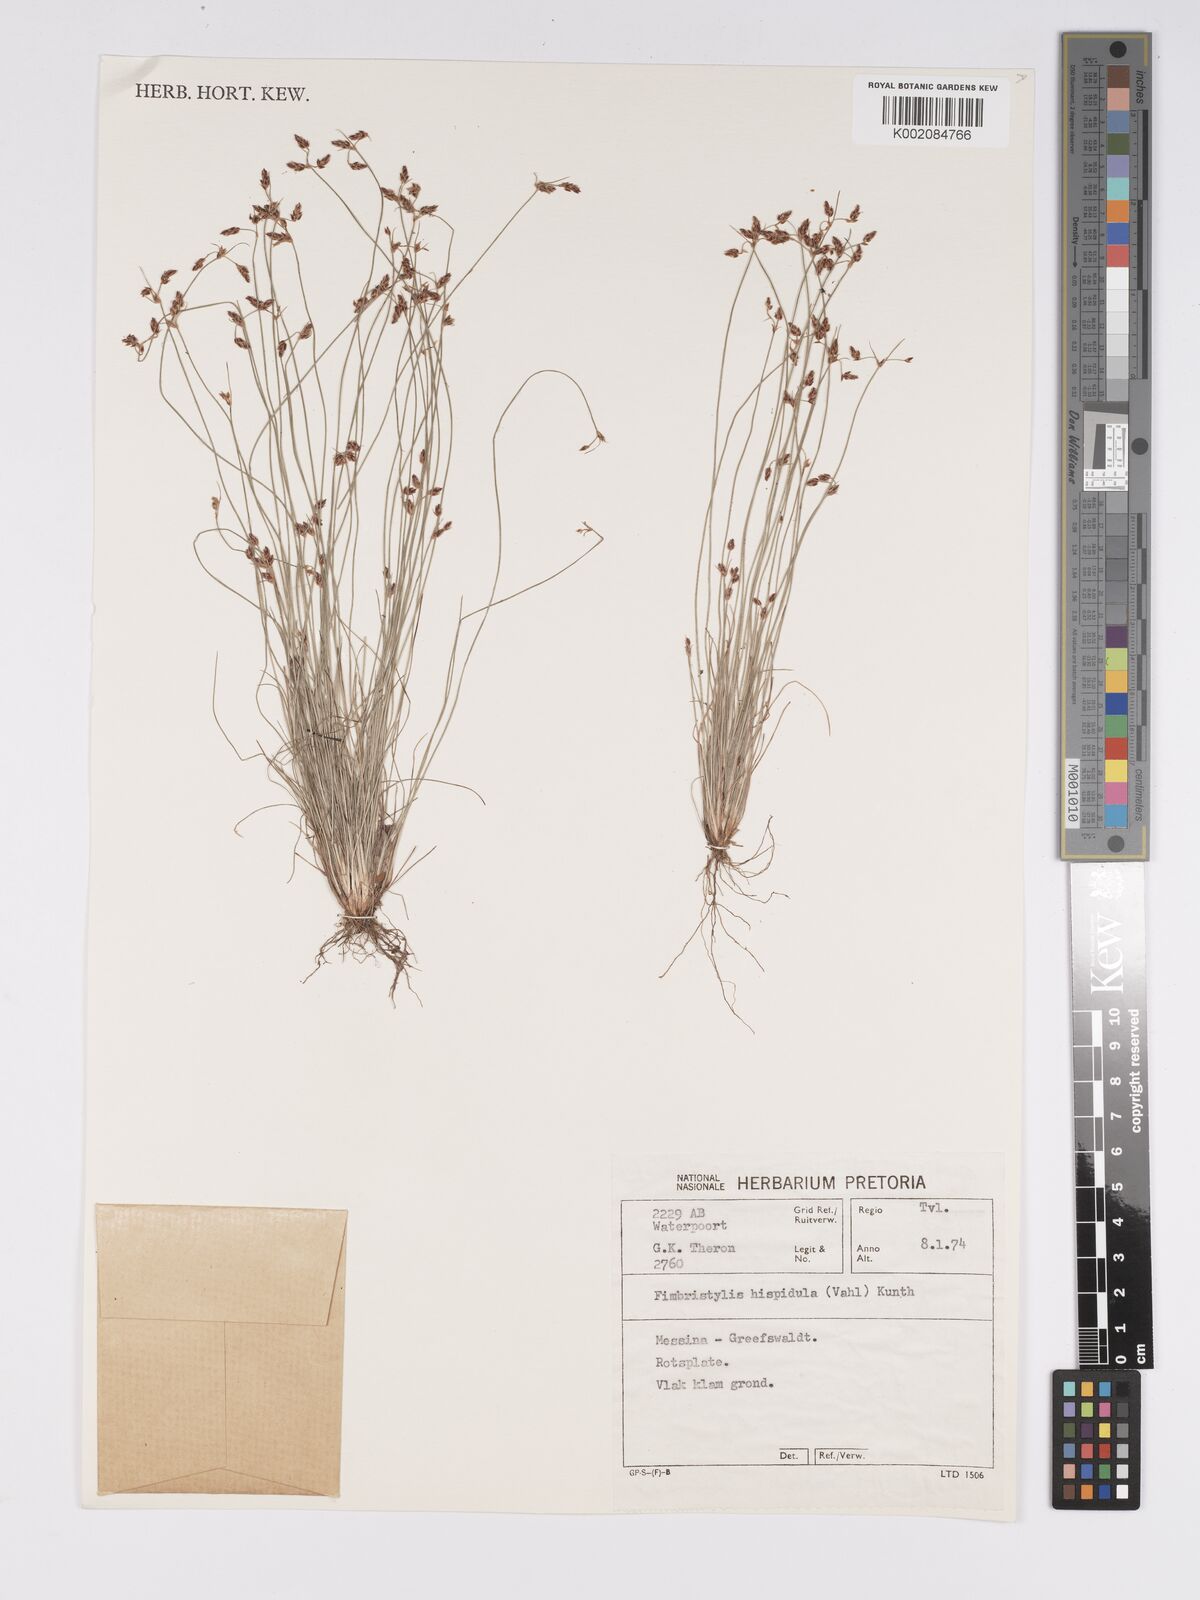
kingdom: Plantae
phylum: Tracheophyta
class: Liliopsida
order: Poales
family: Cyperaceae
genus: Bulbostylis
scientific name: Bulbostylis hispidula
